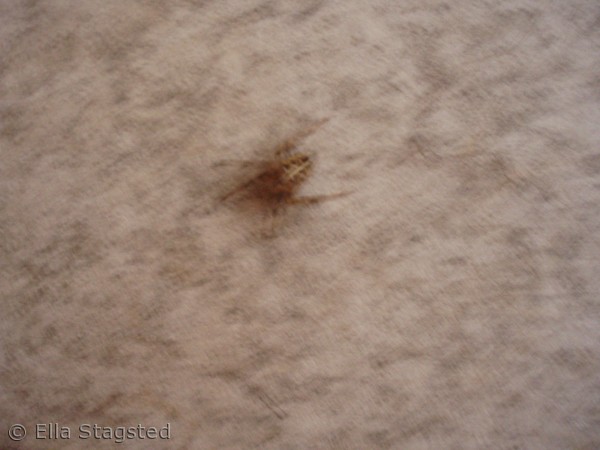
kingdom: Animalia
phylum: Arthropoda
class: Arachnida
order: Araneae
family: Araneidae
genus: Araneus
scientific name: Araneus diadematus
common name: Korsedderkop
